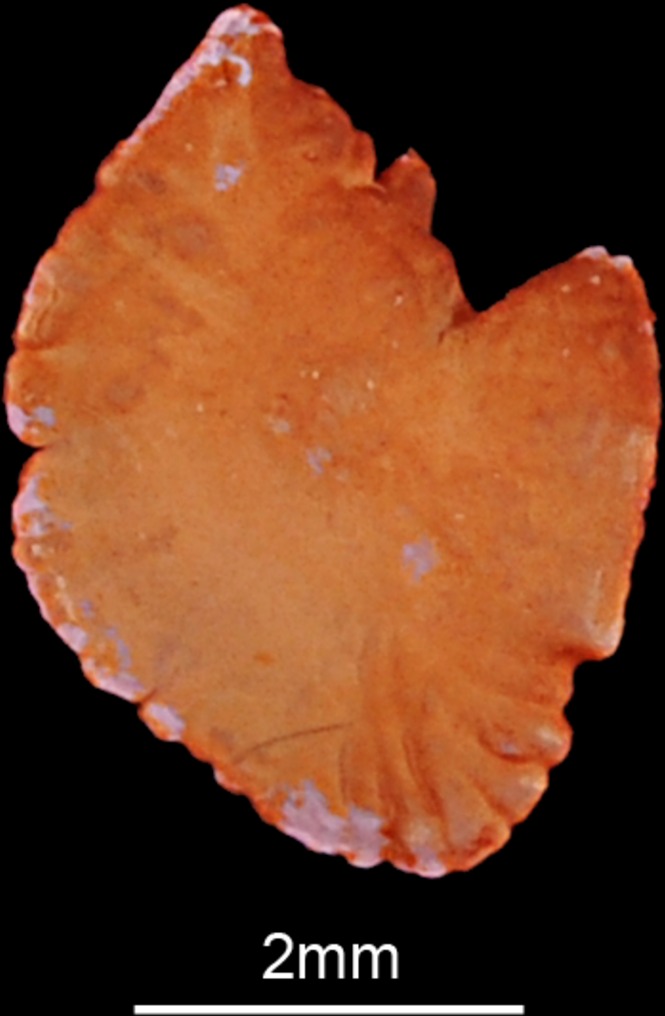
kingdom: Animalia
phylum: Chordata
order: Cypriniformes
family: Cyprinidae
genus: Barbus
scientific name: Barbus barbus
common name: Barbel
